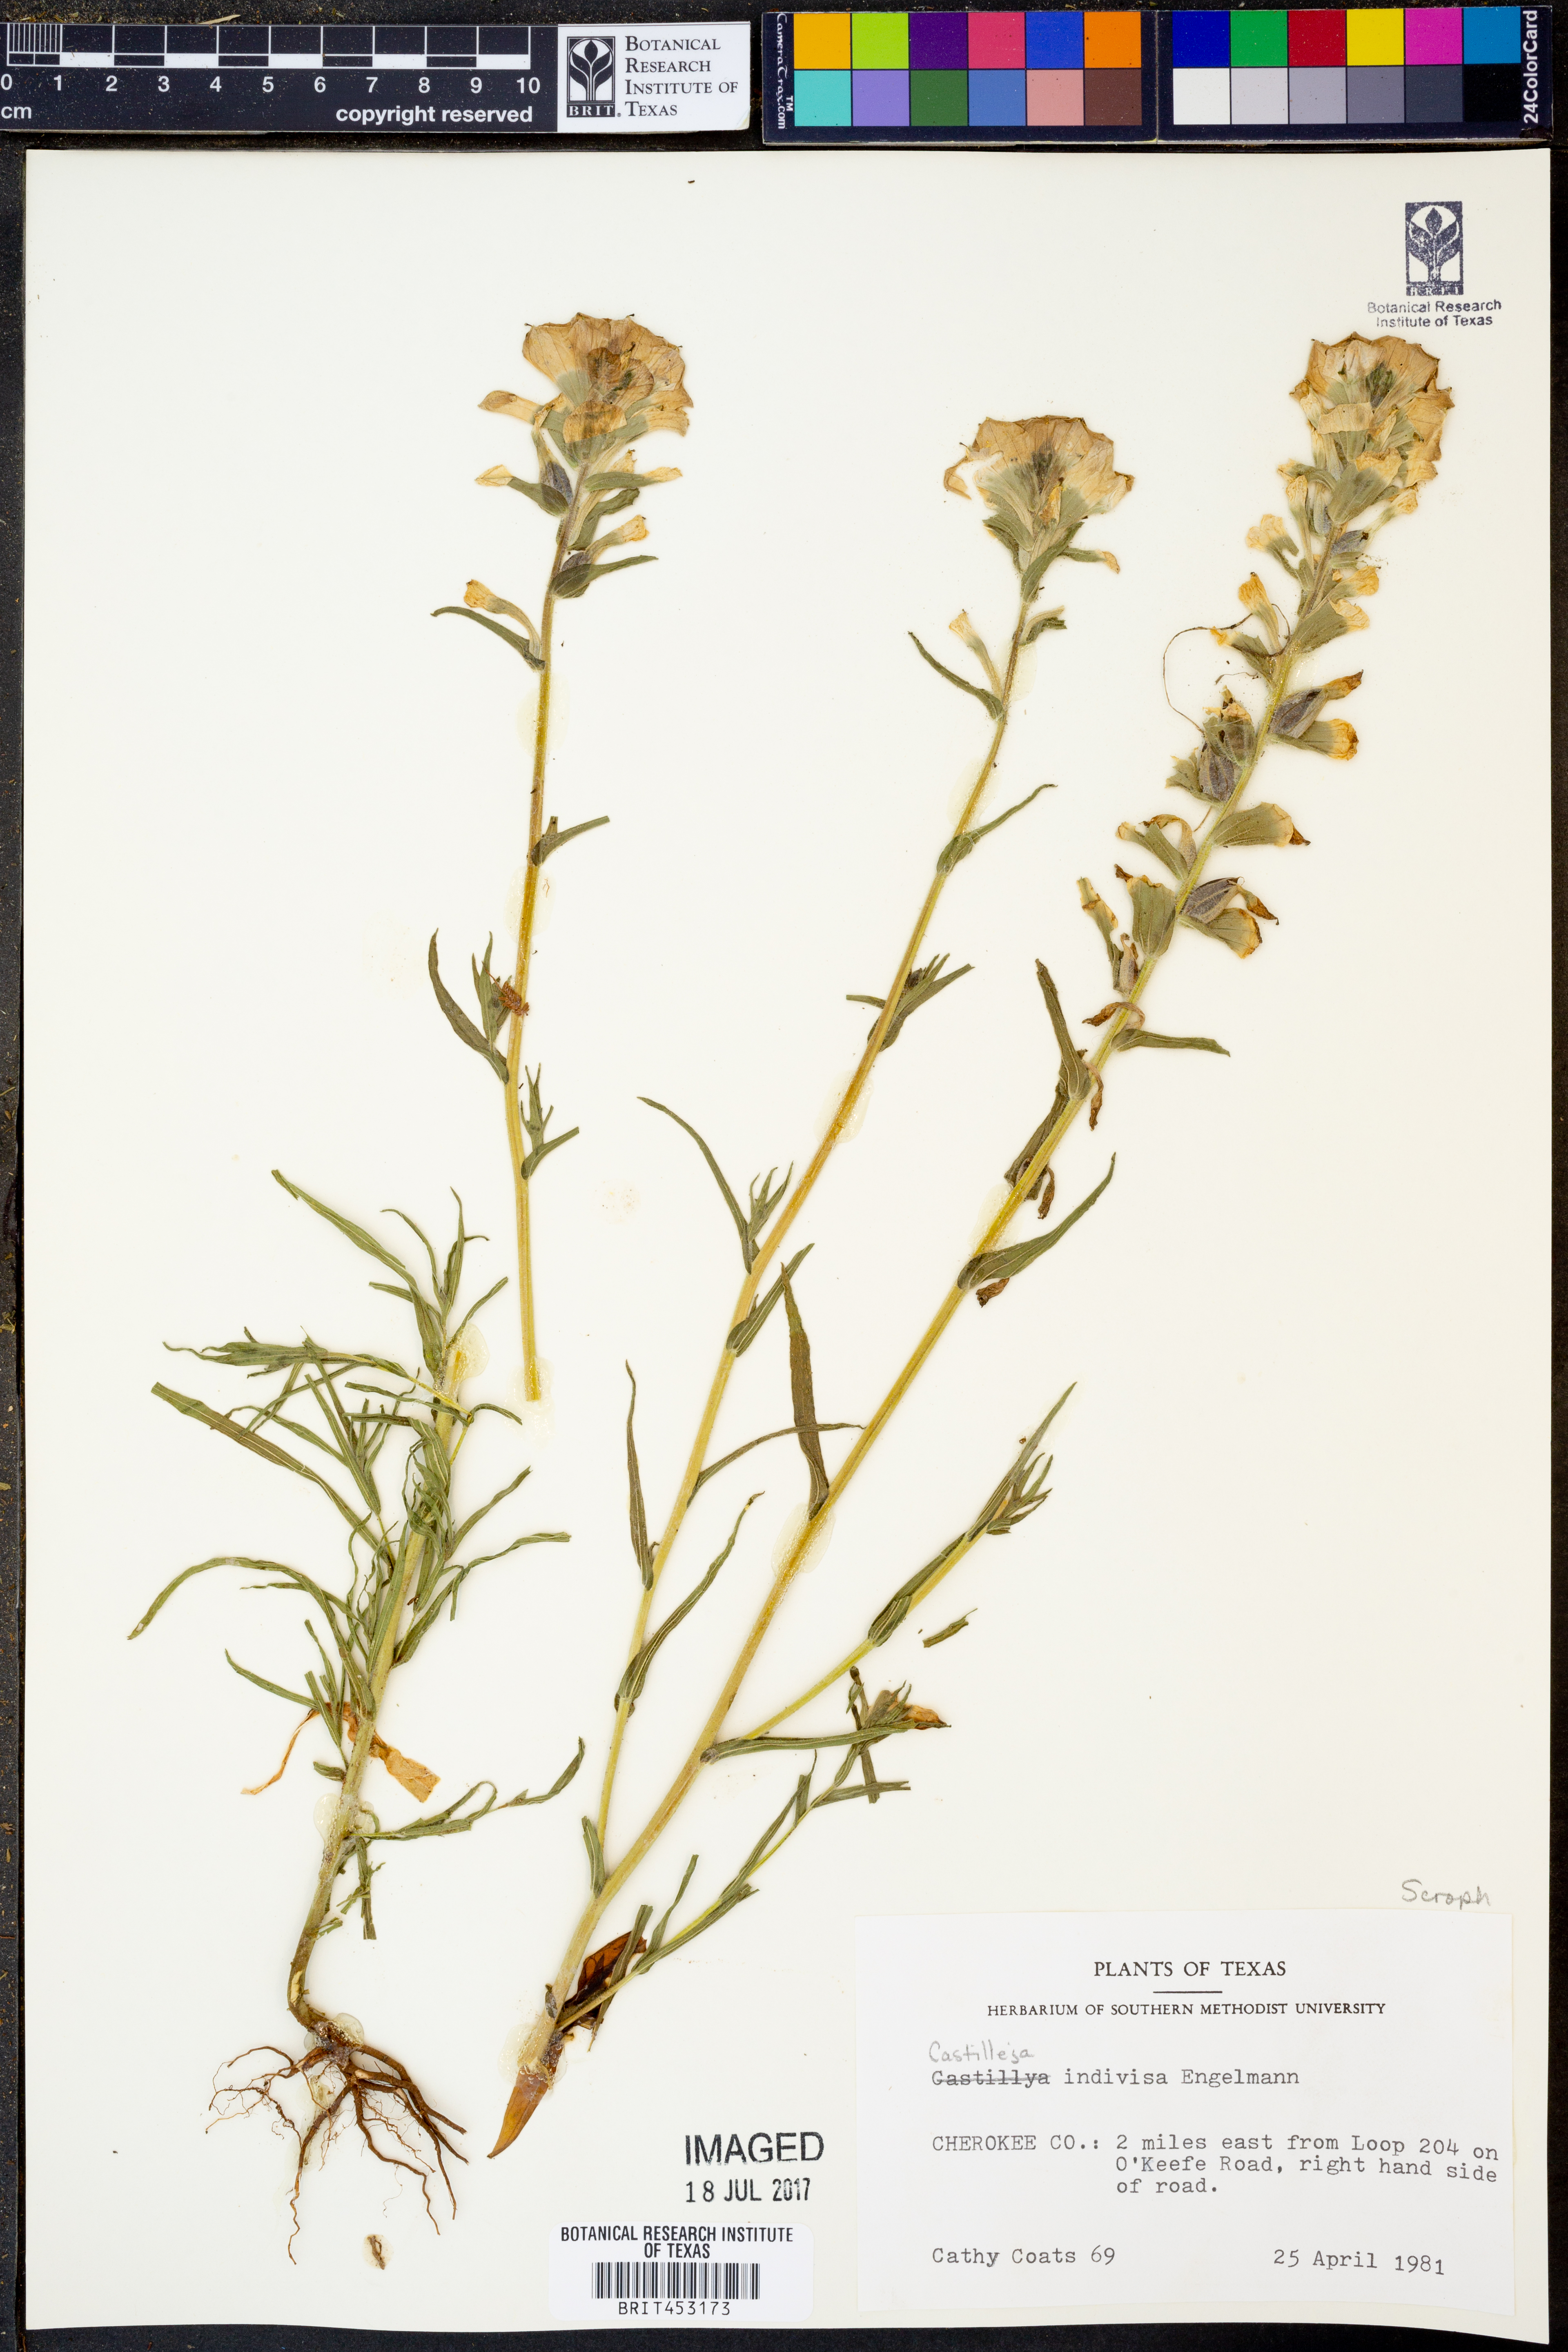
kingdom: Plantae
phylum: Tracheophyta
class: Magnoliopsida
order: Lamiales
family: Orobanchaceae
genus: Castilleja
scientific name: Castilleja indivisa
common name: Texas paintbrush
